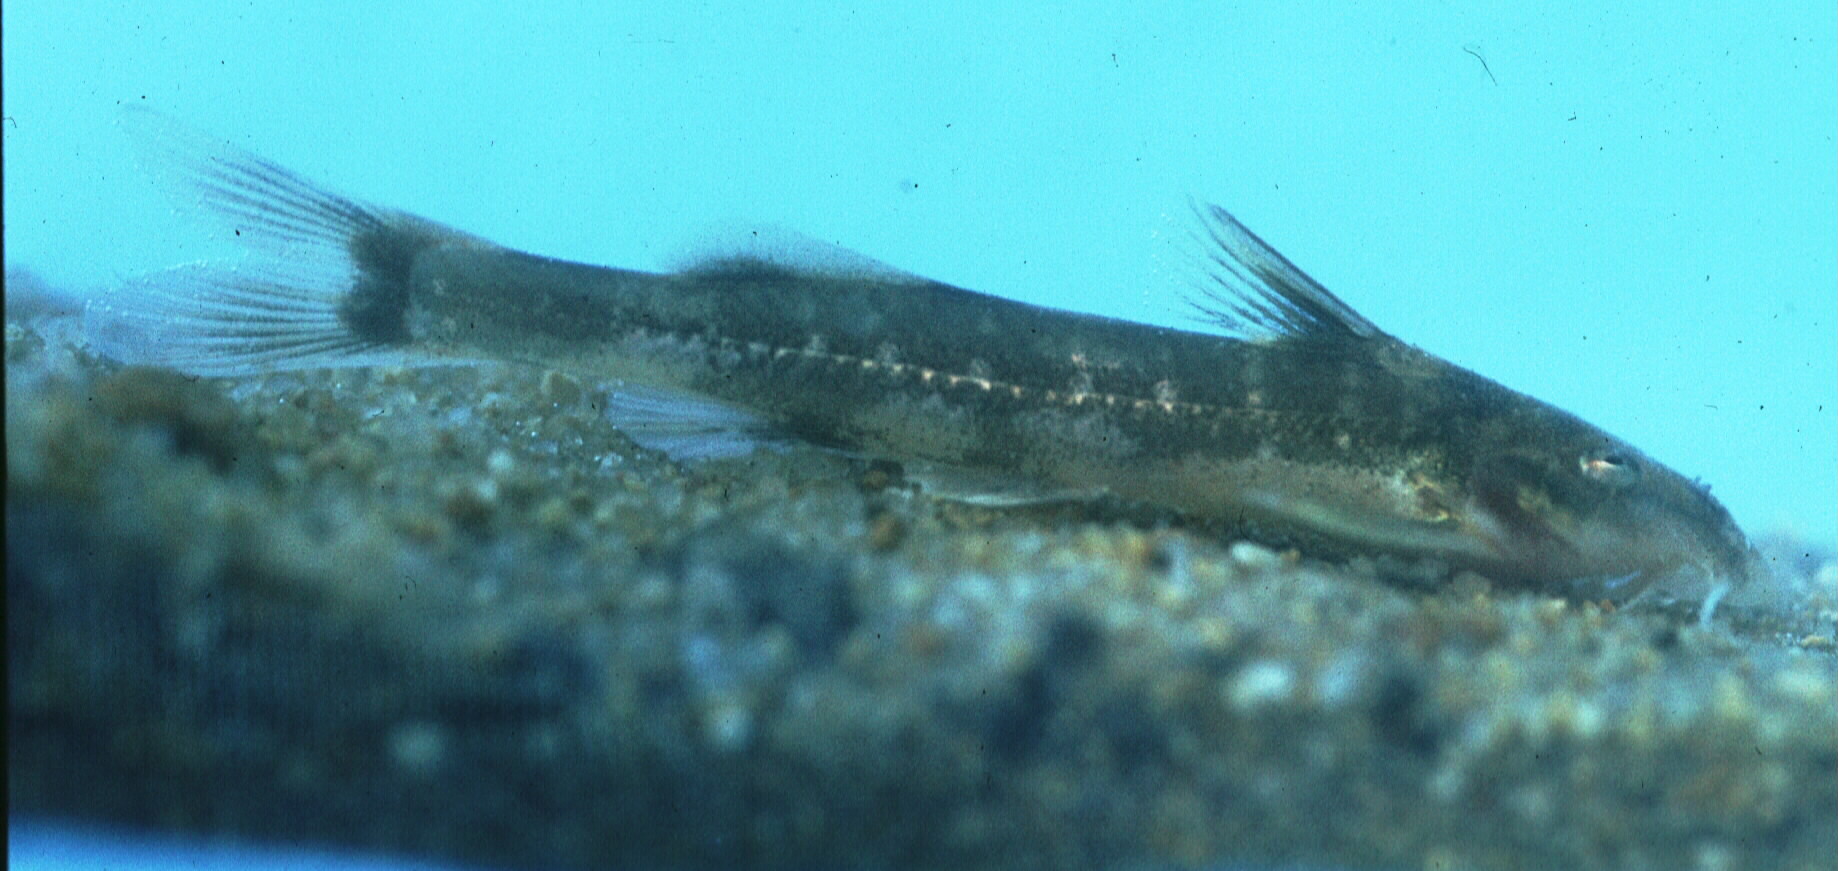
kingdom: Animalia
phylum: Chordata
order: Siluriformes
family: Mochokidae
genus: Chiloglanis
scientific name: Chiloglanis swierstrai
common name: Lowveld suckermouth
